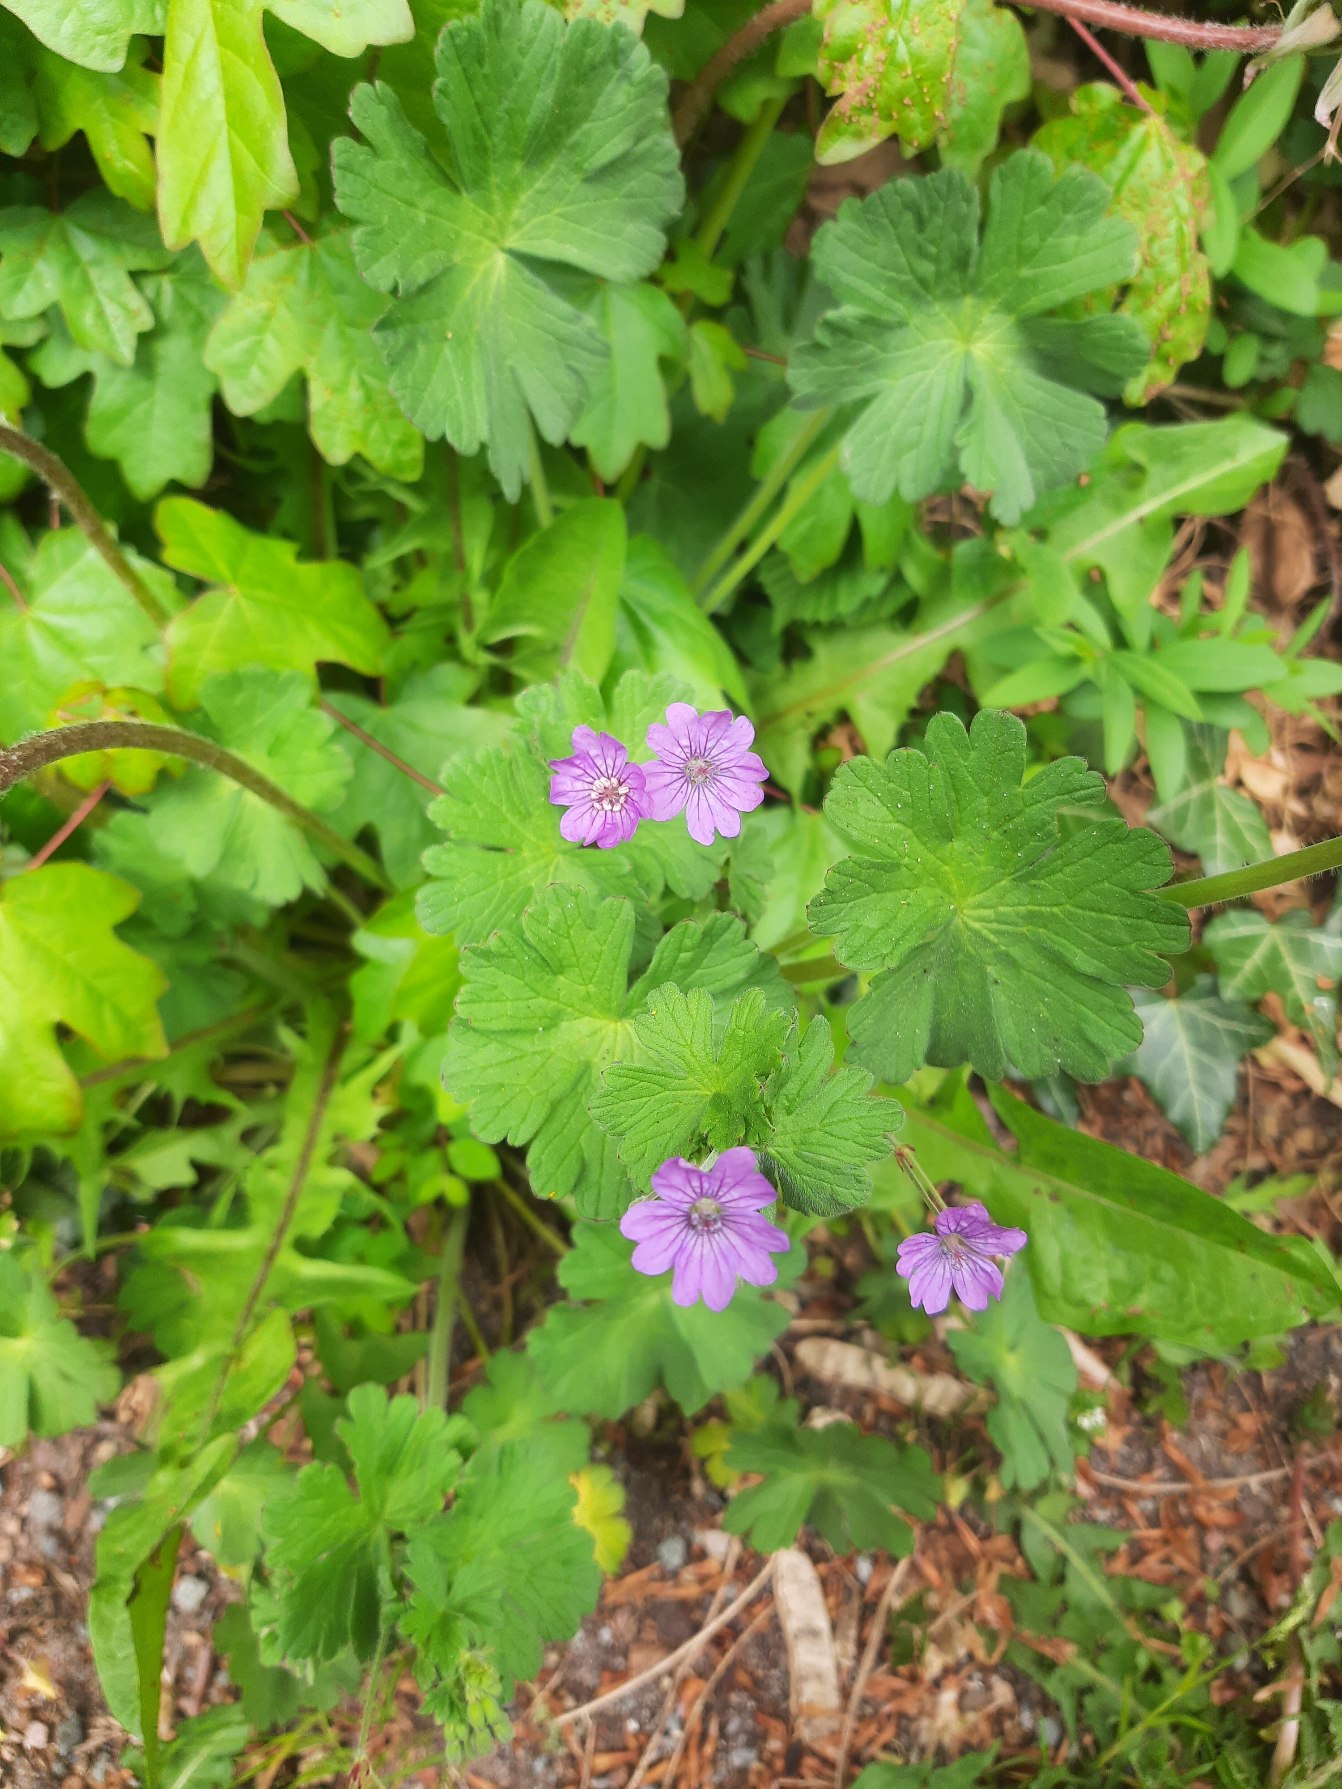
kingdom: Plantae
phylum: Tracheophyta
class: Magnoliopsida
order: Geraniales
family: Geraniaceae
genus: Geranium
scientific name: Geranium pyrenaicum
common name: Pyrenæisk storkenæb
